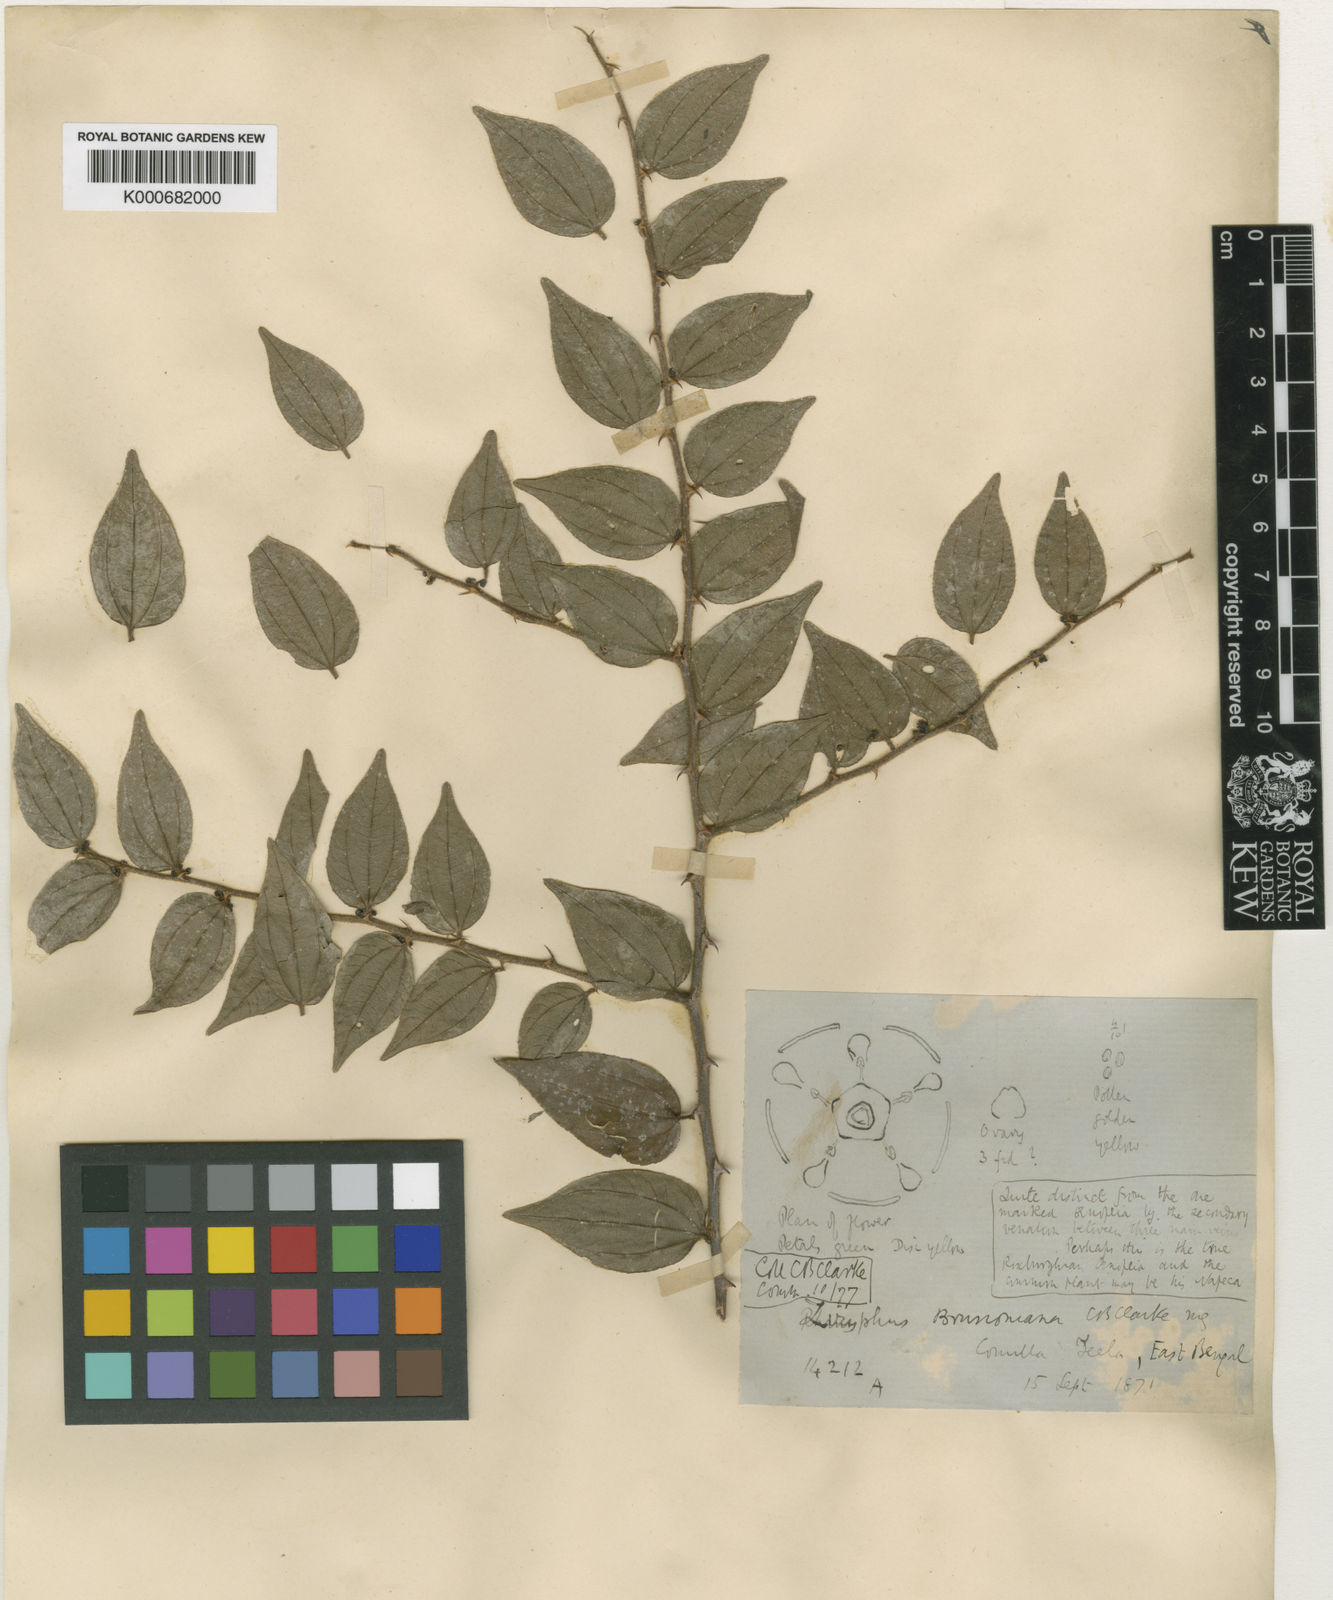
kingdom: Plantae
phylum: Tracheophyta
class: Magnoliopsida
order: Rosales
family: Rhamnaceae
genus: Ziziphus
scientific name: Ziziphus
